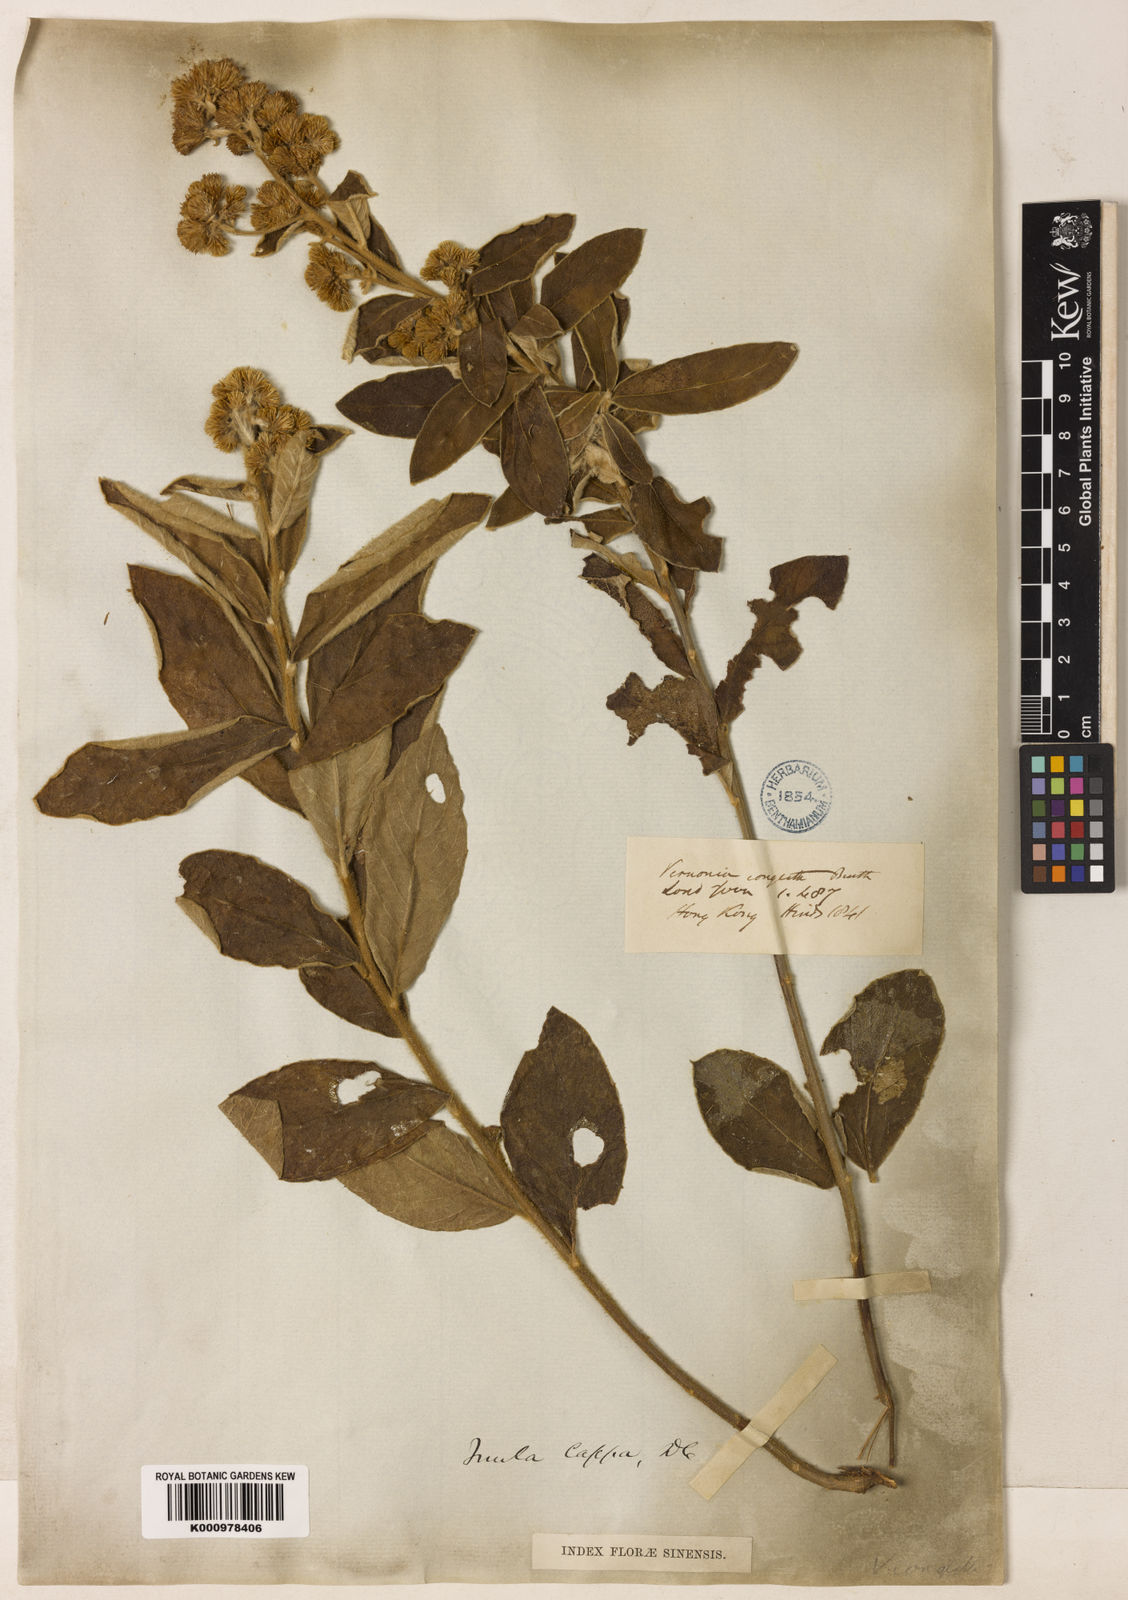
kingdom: Plantae
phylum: Tracheophyta
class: Magnoliopsida
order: Asterales
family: Asteraceae
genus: Duhaldea
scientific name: Duhaldea cappa
